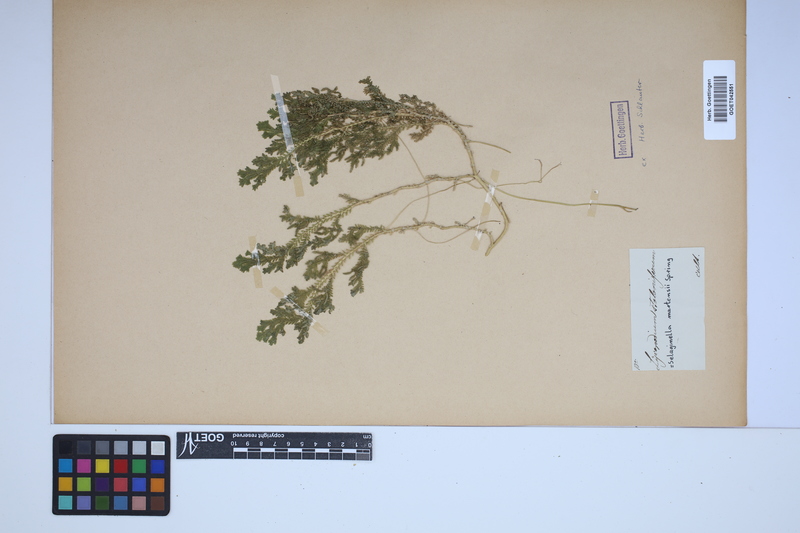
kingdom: Plantae
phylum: Tracheophyta
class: Lycopodiopsida
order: Selaginellales
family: Selaginellaceae
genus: Selaginella
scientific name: Selaginella martensii
